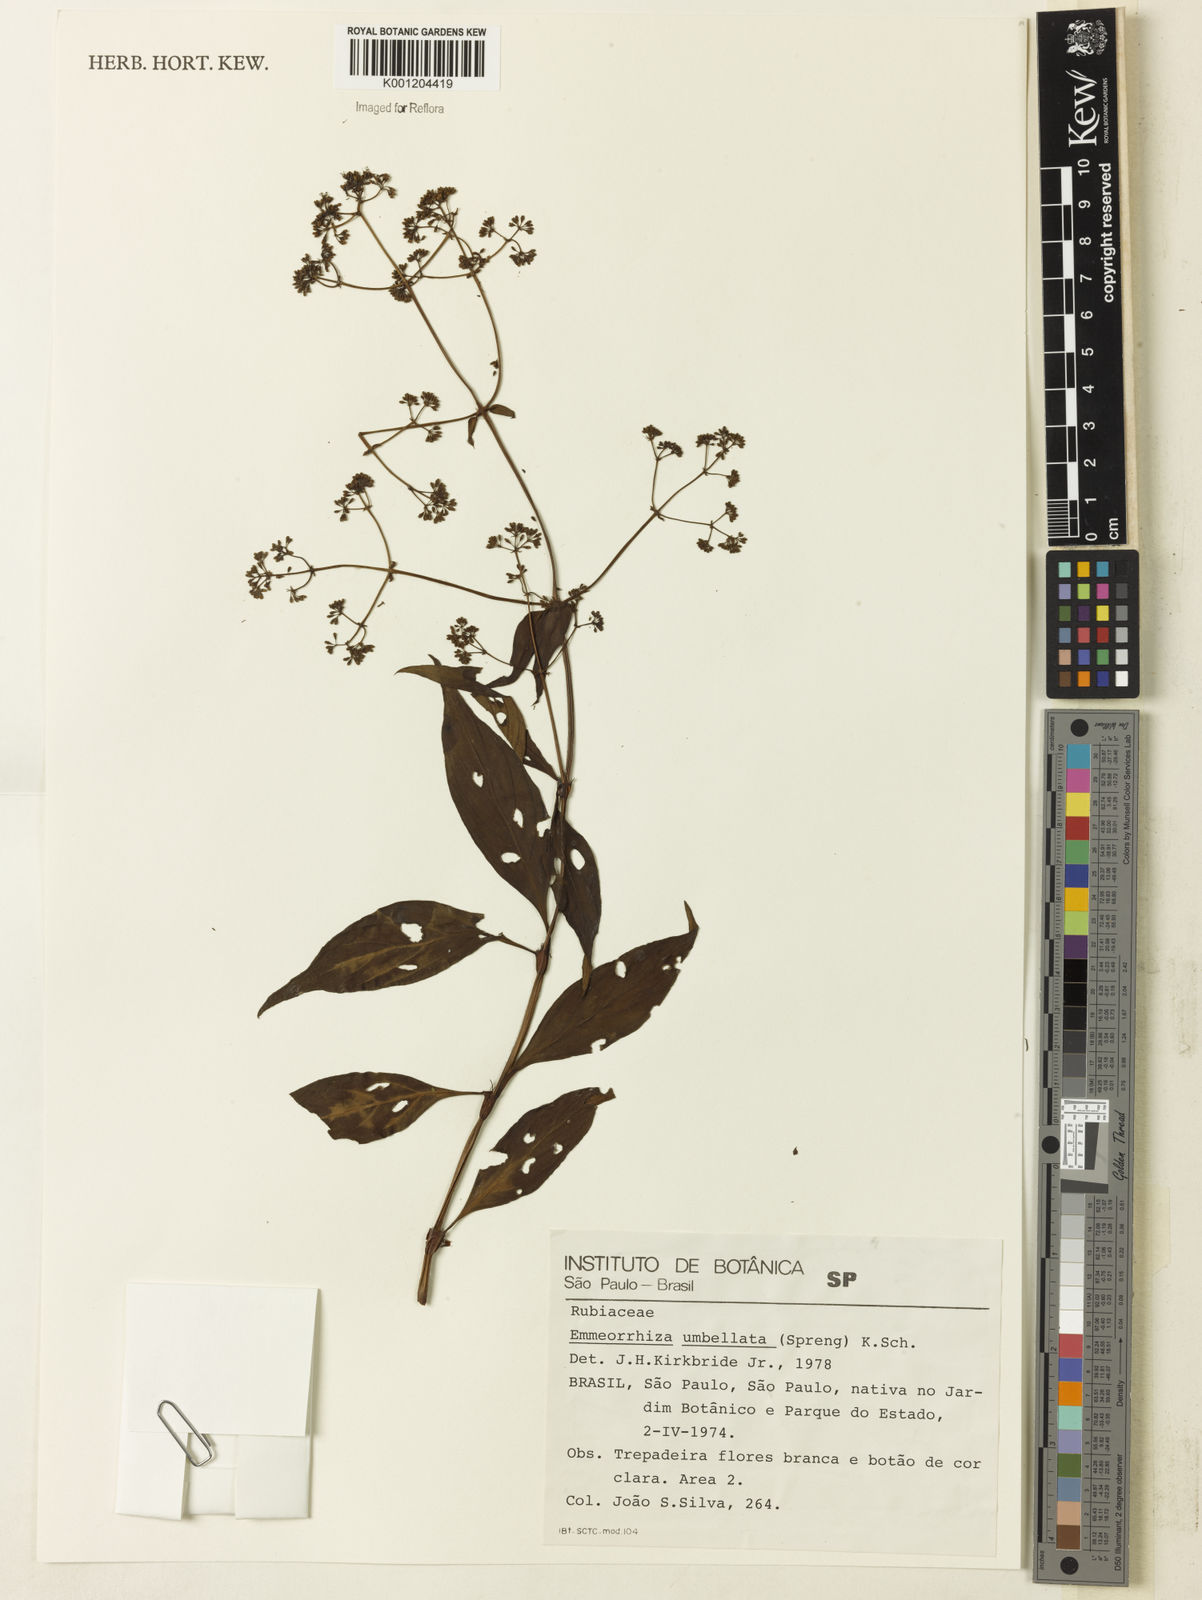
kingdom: Plantae
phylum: Tracheophyta
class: Magnoliopsida
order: Gentianales
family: Rubiaceae
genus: Emmeorhiza
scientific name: Emmeorhiza umbellata
